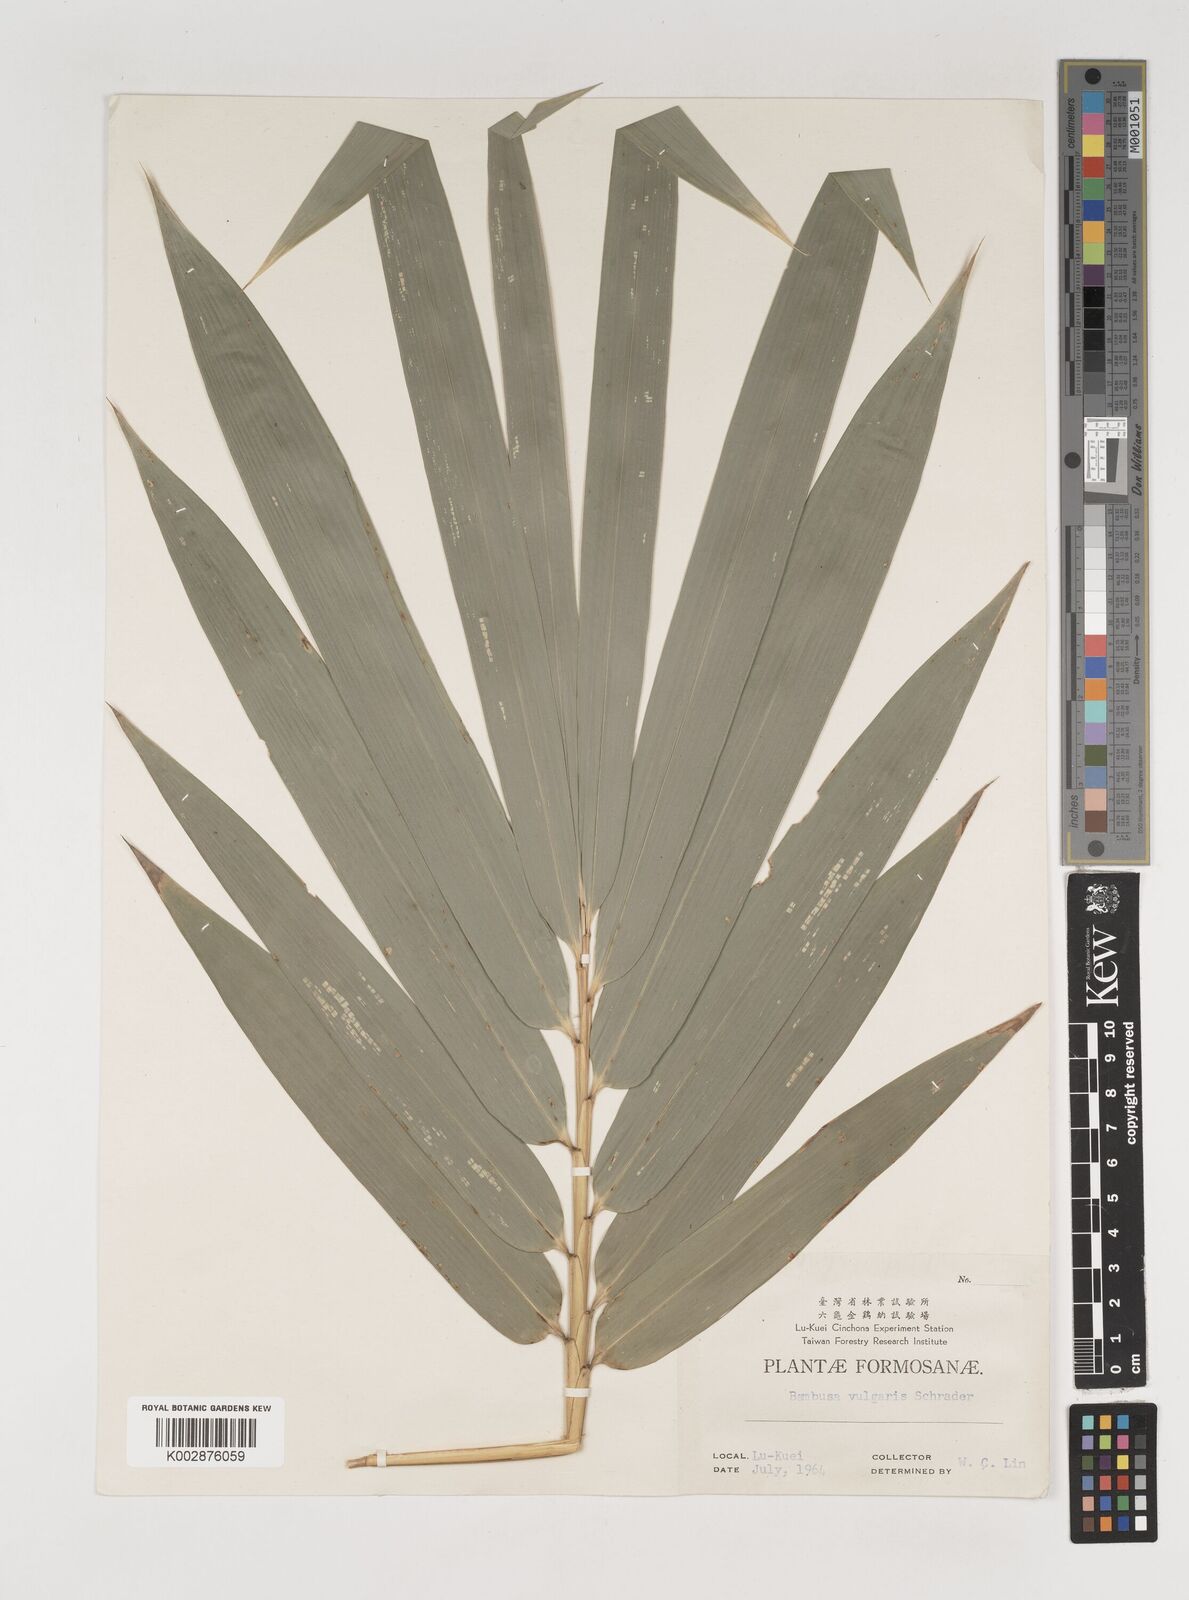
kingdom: Plantae
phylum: Tracheophyta
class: Liliopsida
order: Poales
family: Poaceae
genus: Bambusa
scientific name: Bambusa balcooa
